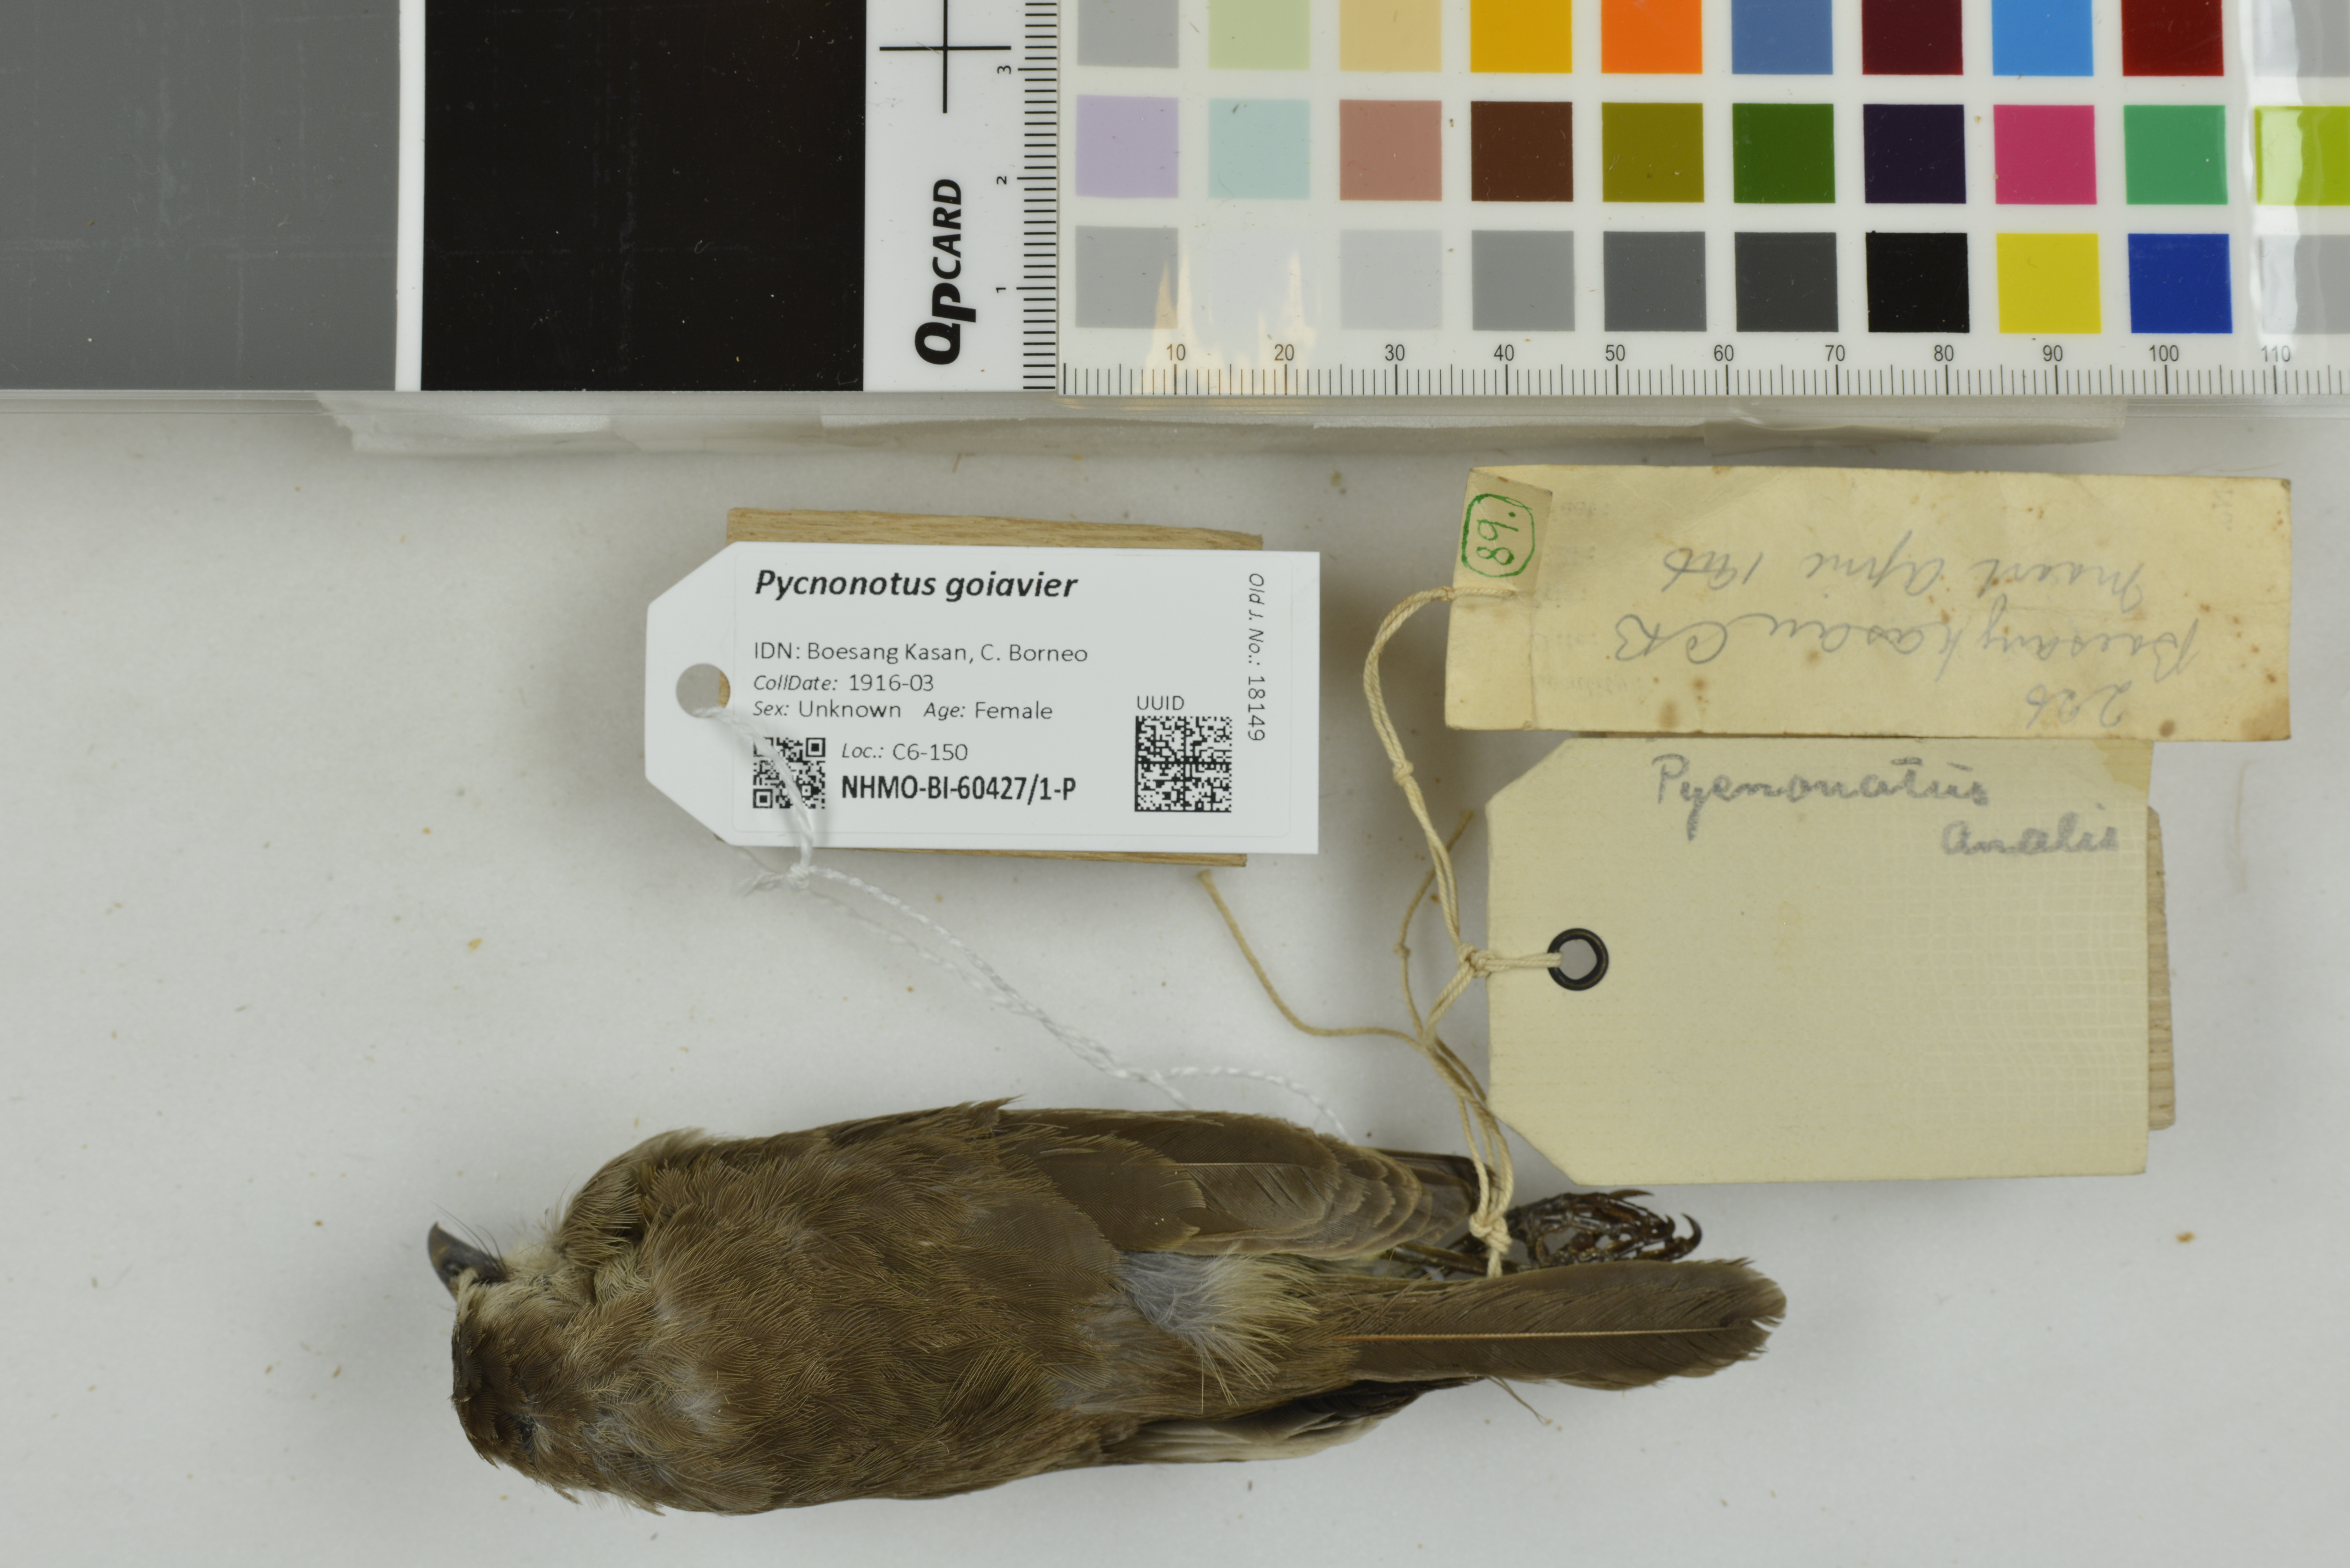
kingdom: Animalia
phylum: Chordata
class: Aves
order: Passeriformes
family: Pycnonotidae
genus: Pycnonotus
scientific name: Pycnonotus goiavier
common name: Yellow-vented bulbul
